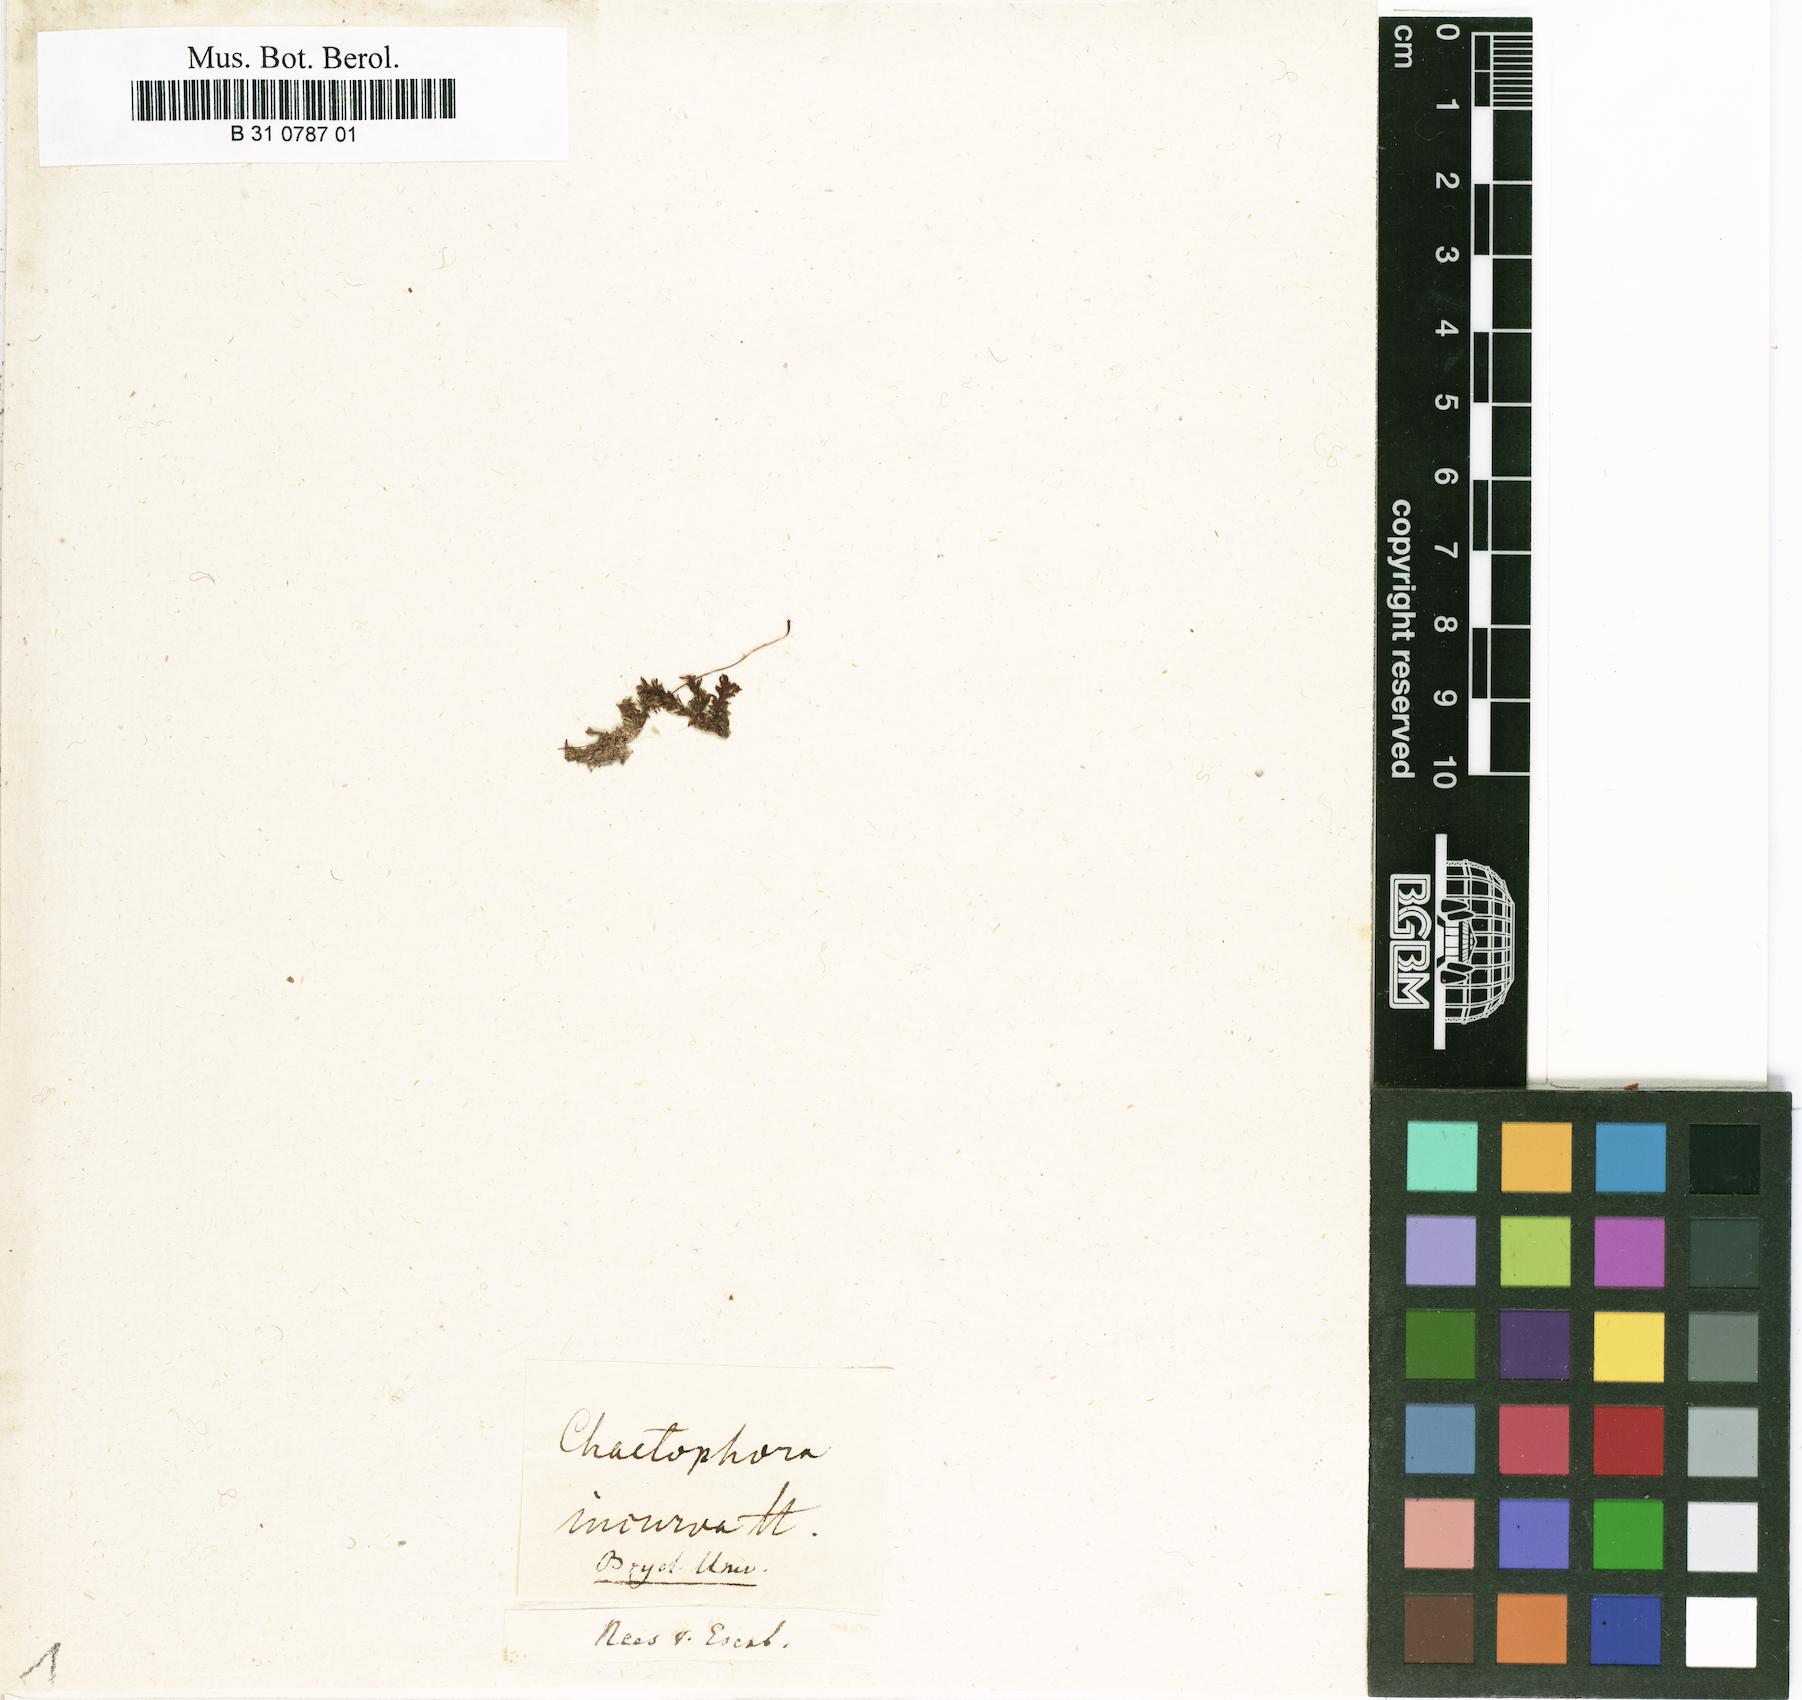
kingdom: Plantae
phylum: Bryophyta
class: Bryopsida
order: Hookeriales
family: Pilotrichaceae
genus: Thamniopsis
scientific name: Thamniopsis incurva
